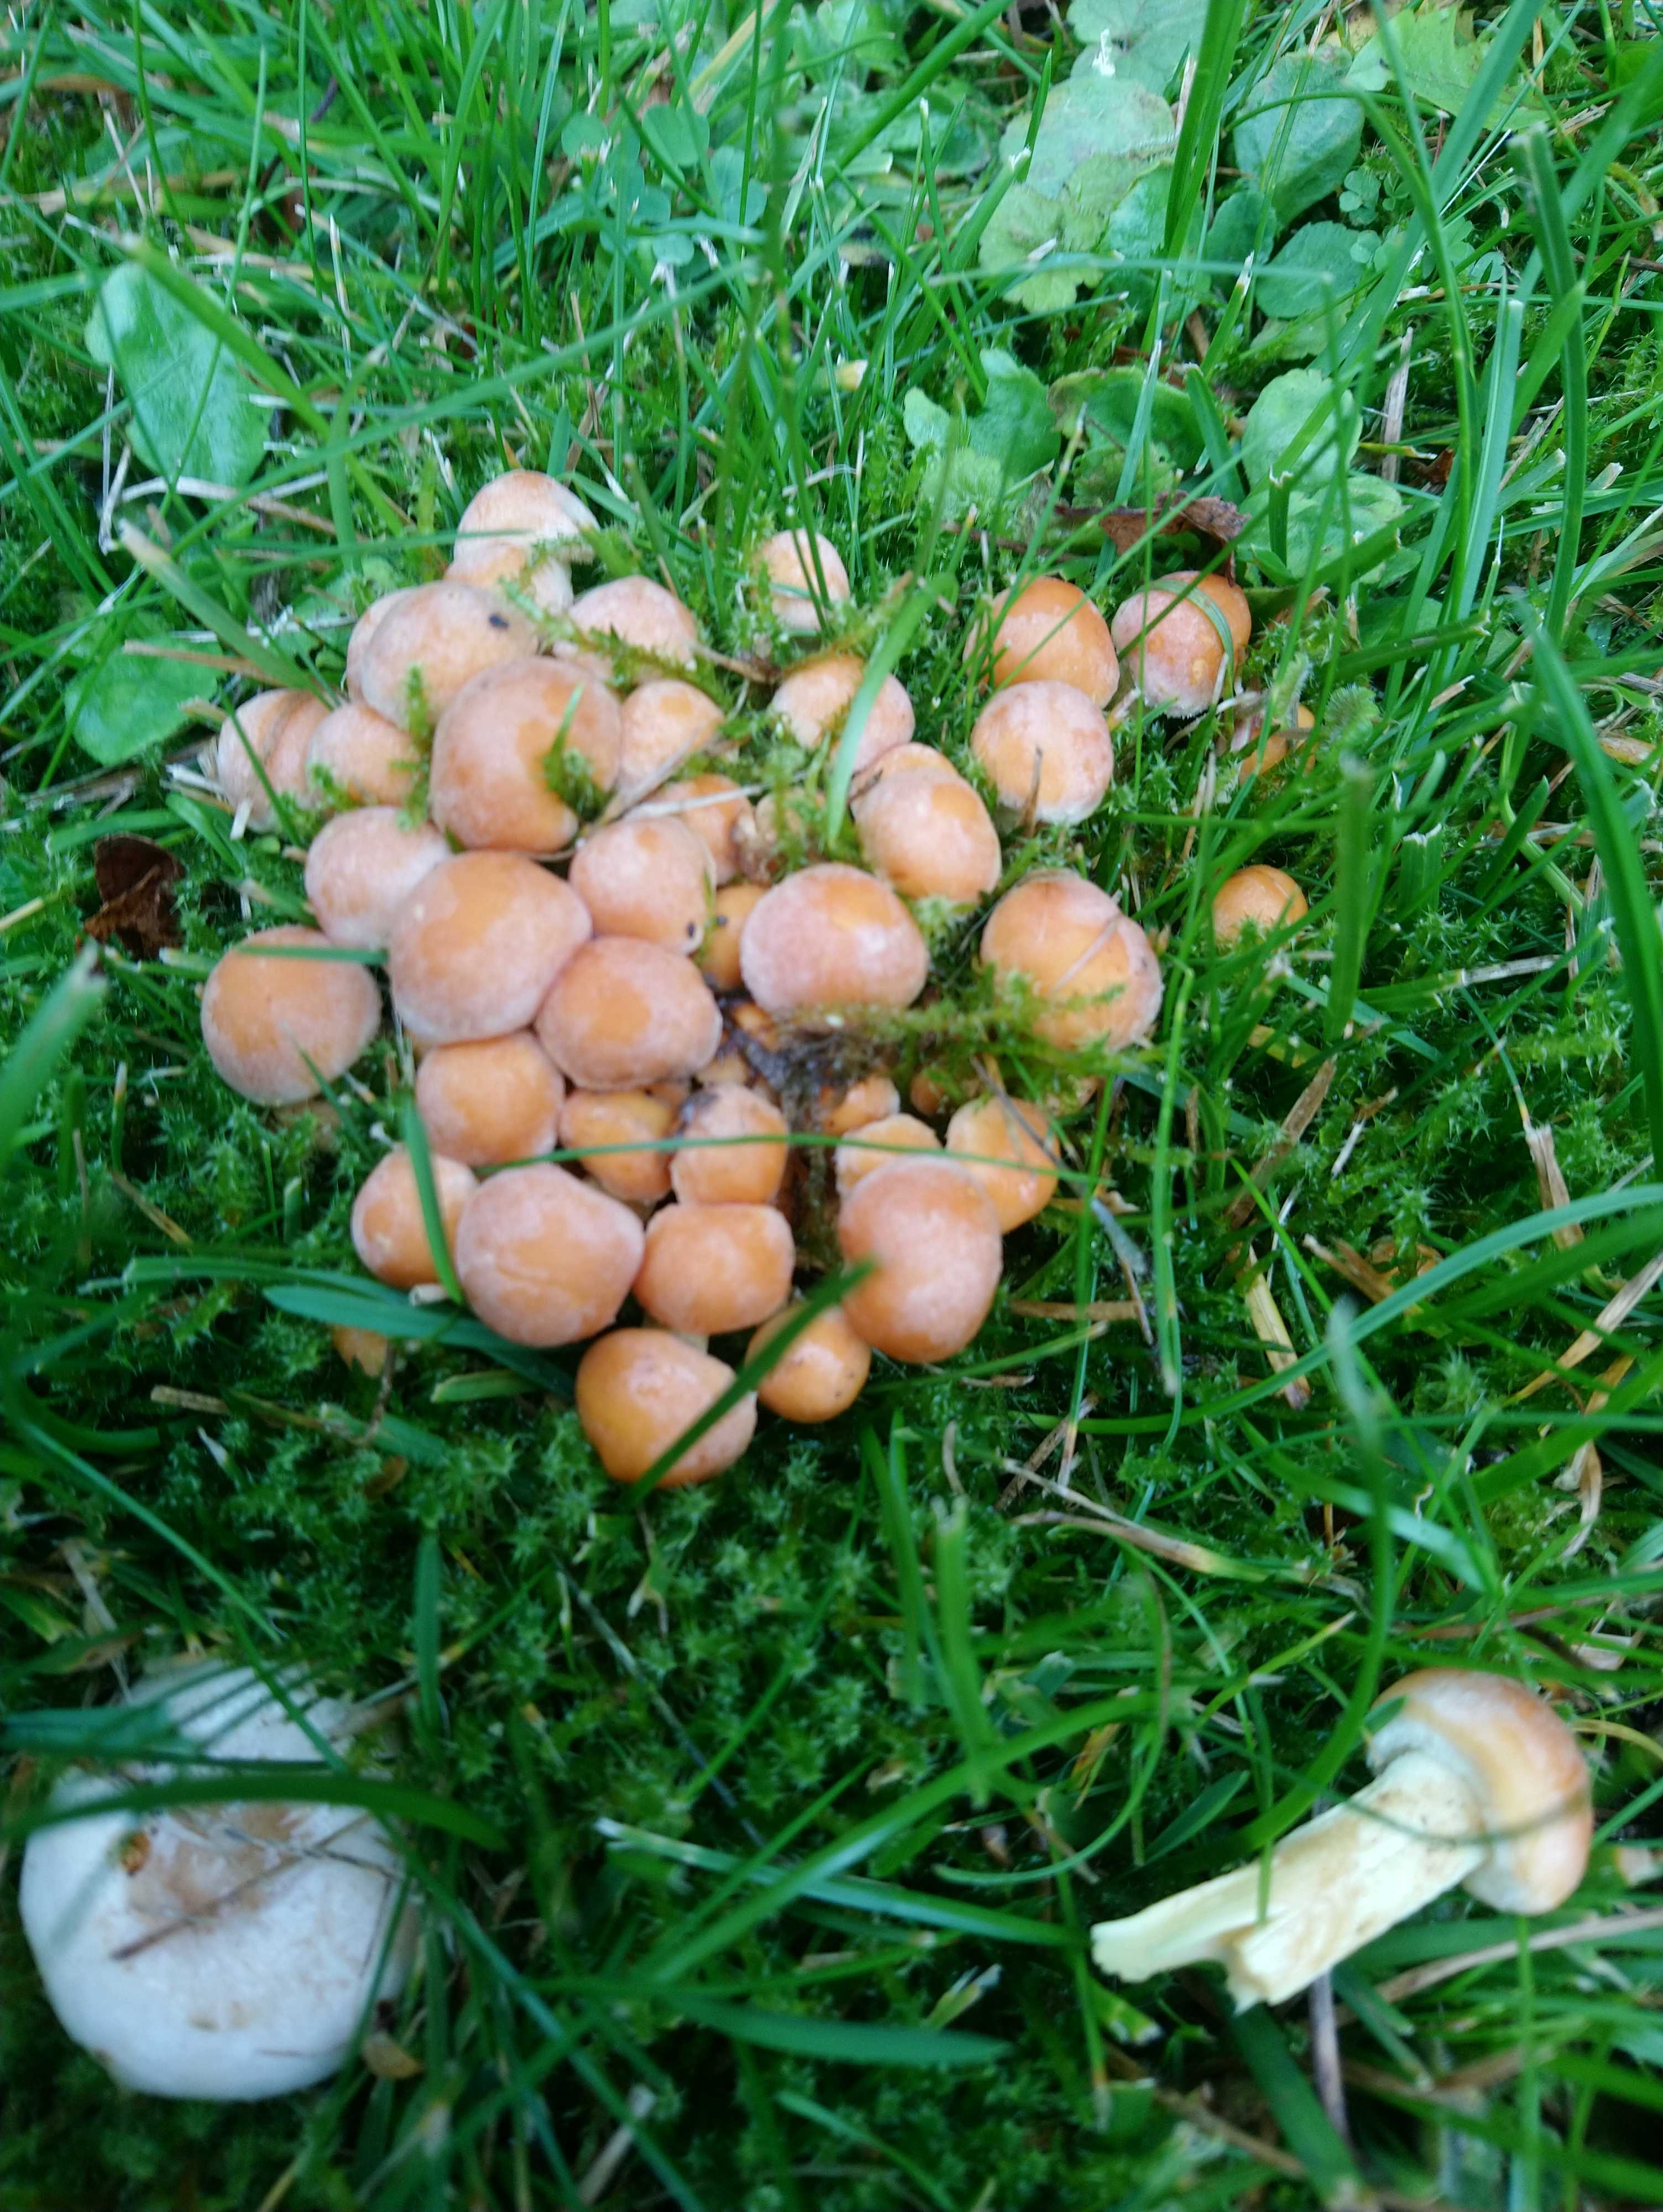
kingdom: Fungi
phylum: Basidiomycota
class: Agaricomycetes
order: Agaricales
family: Strophariaceae
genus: Hypholoma
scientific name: Hypholoma fasciculare
